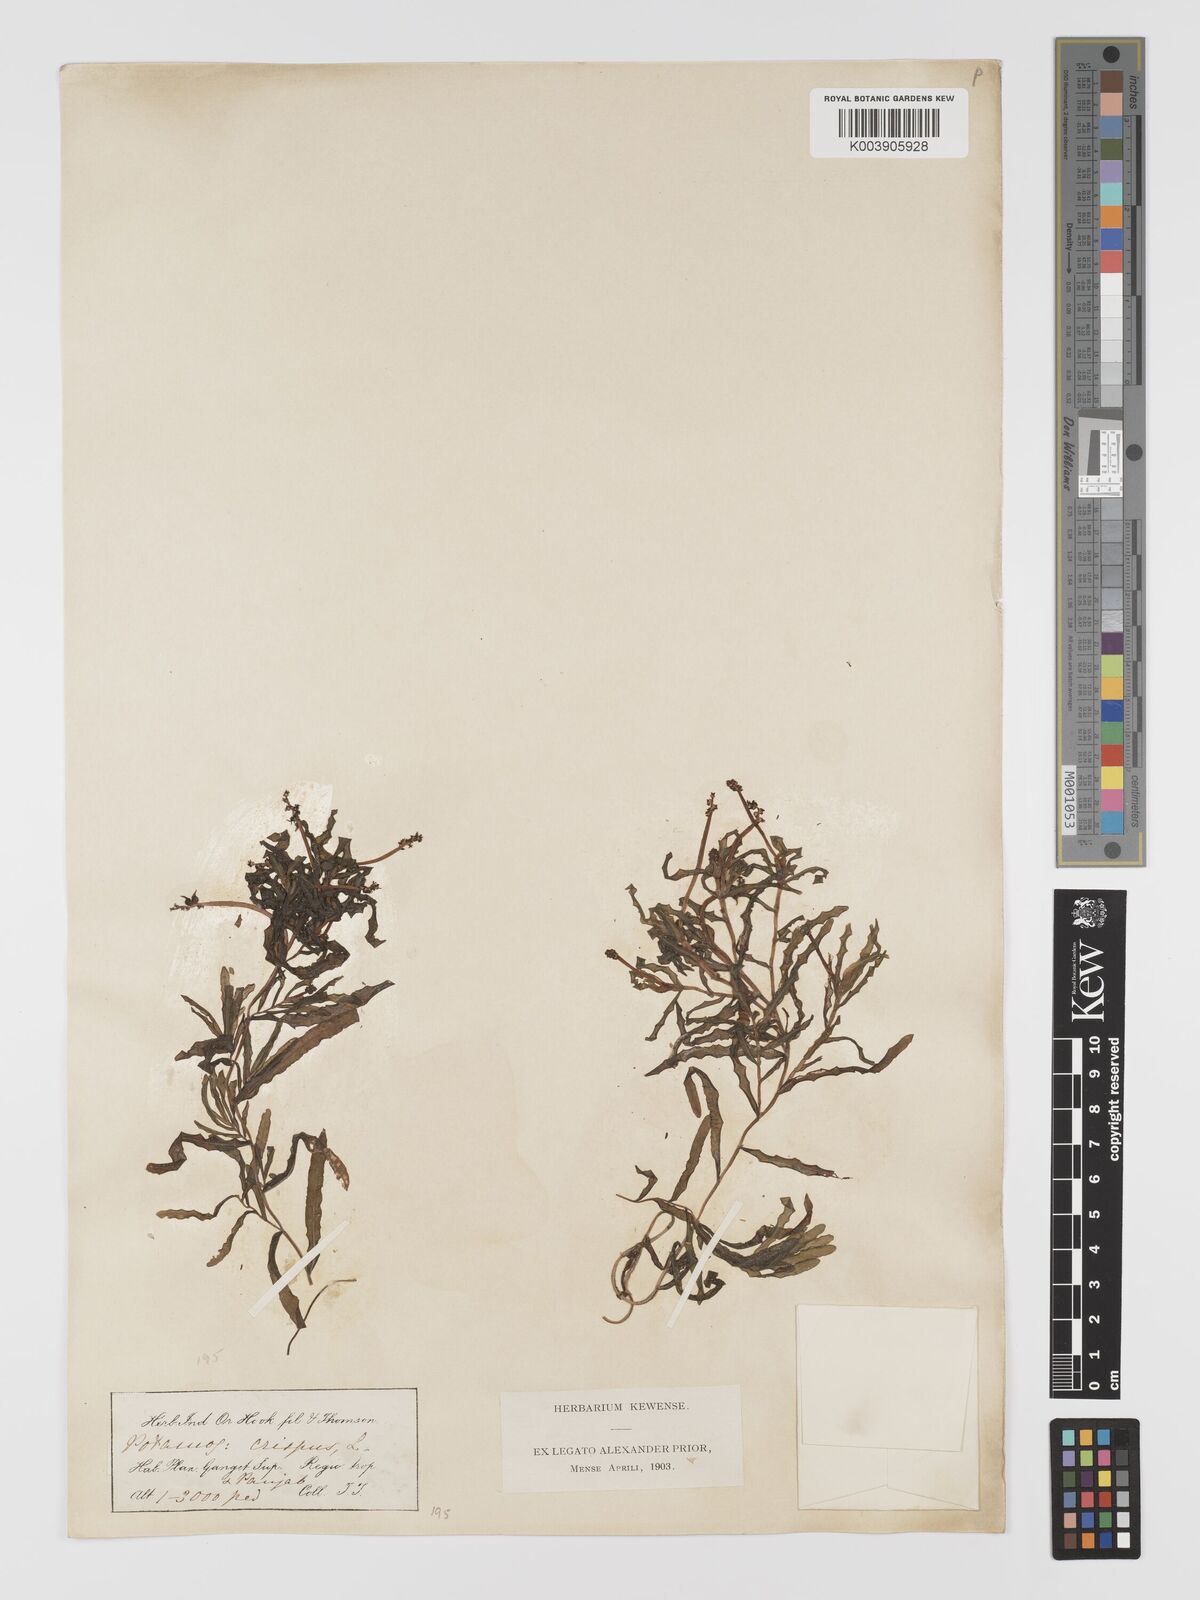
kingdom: Plantae
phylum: Tracheophyta
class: Liliopsida
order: Alismatales
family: Potamogetonaceae
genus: Potamogeton
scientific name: Potamogeton crispus
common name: Curled pondweed
